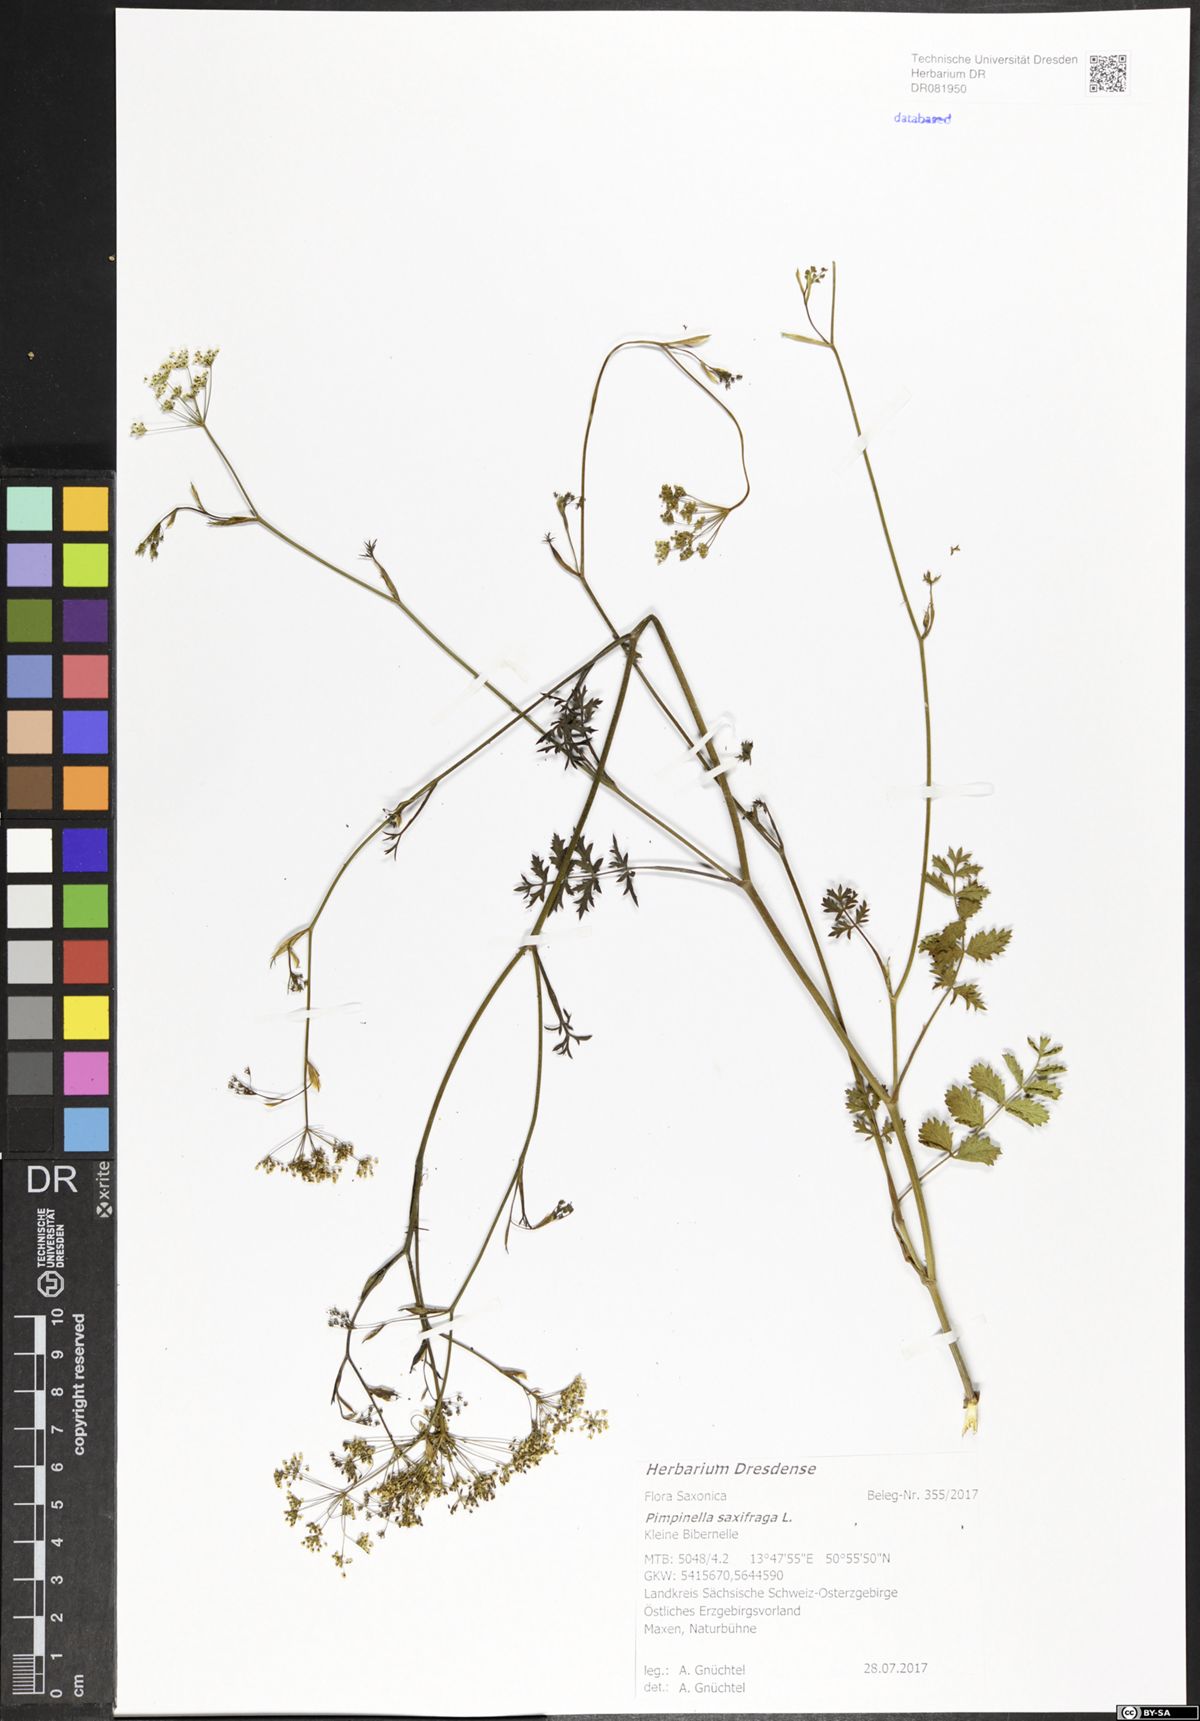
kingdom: Plantae
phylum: Tracheophyta
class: Magnoliopsida
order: Apiales
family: Apiaceae
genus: Pimpinella
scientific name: Pimpinella saxifraga
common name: Burnet-saxifrage
